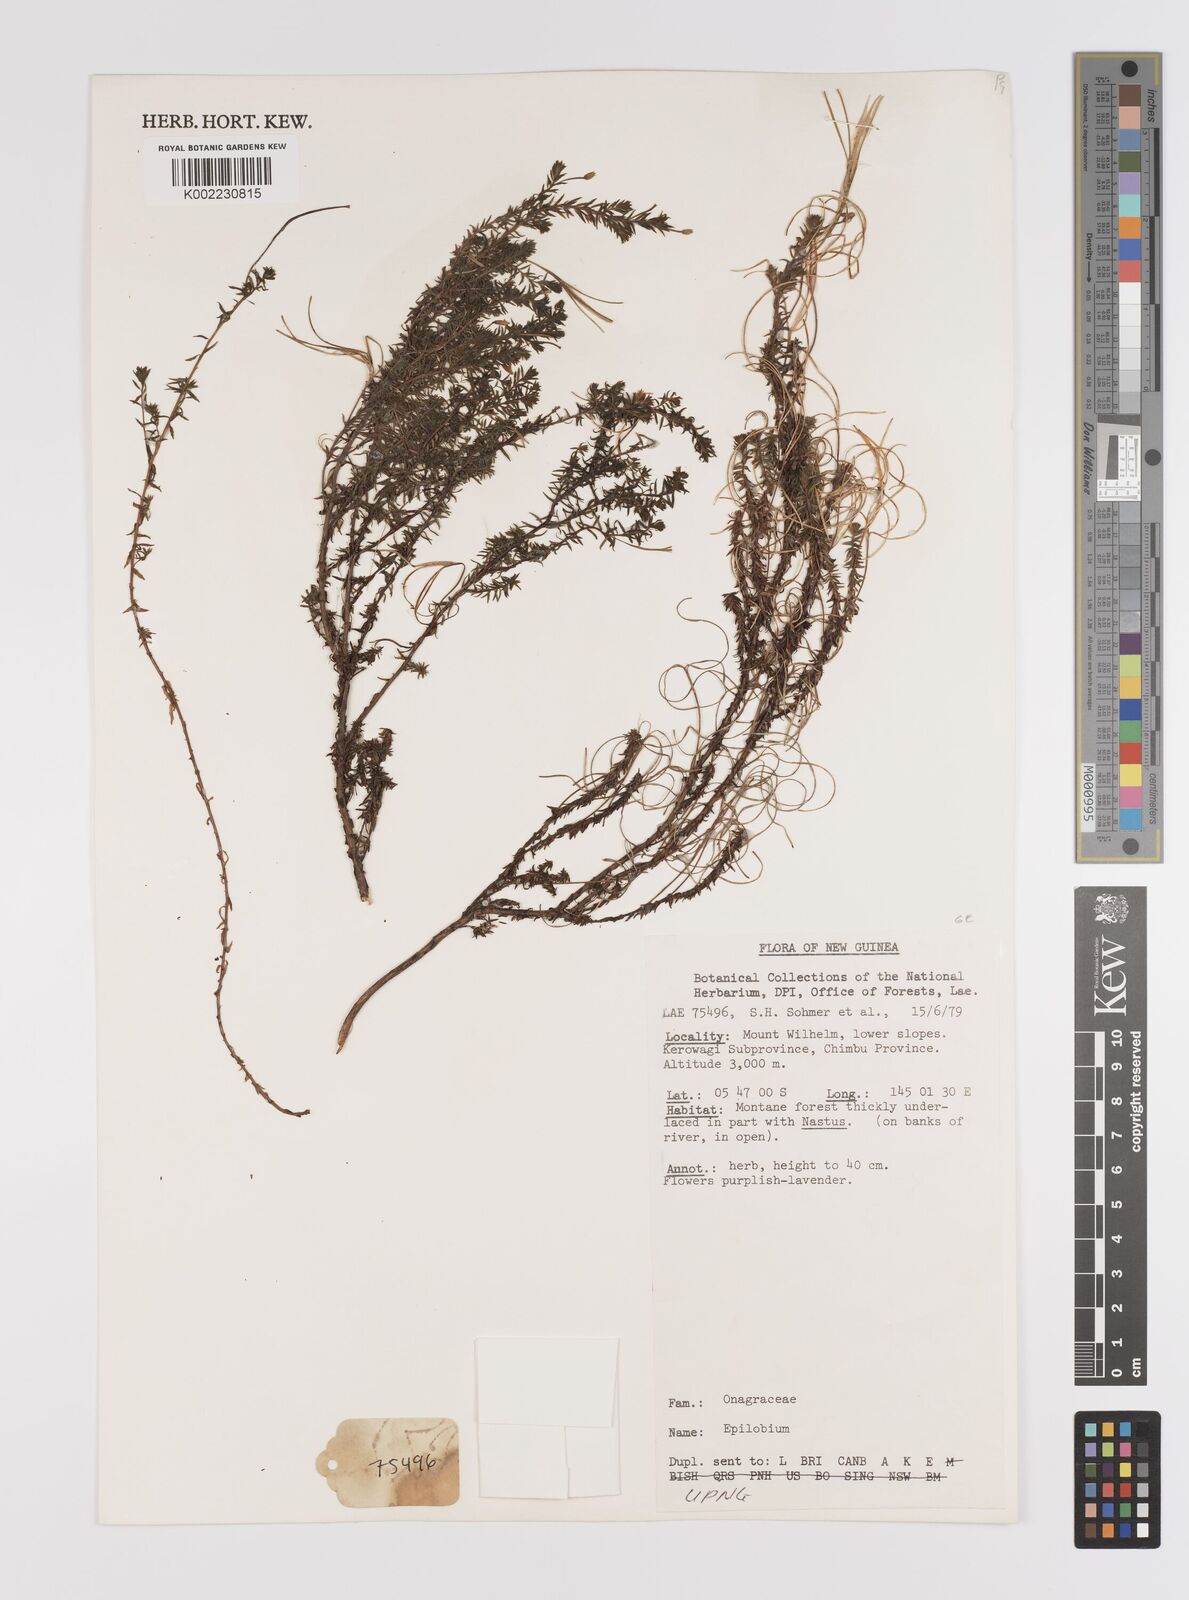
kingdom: Plantae
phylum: Tracheophyta
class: Magnoliopsida
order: Myrtales
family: Onagraceae
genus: Epilobium
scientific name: Epilobium
